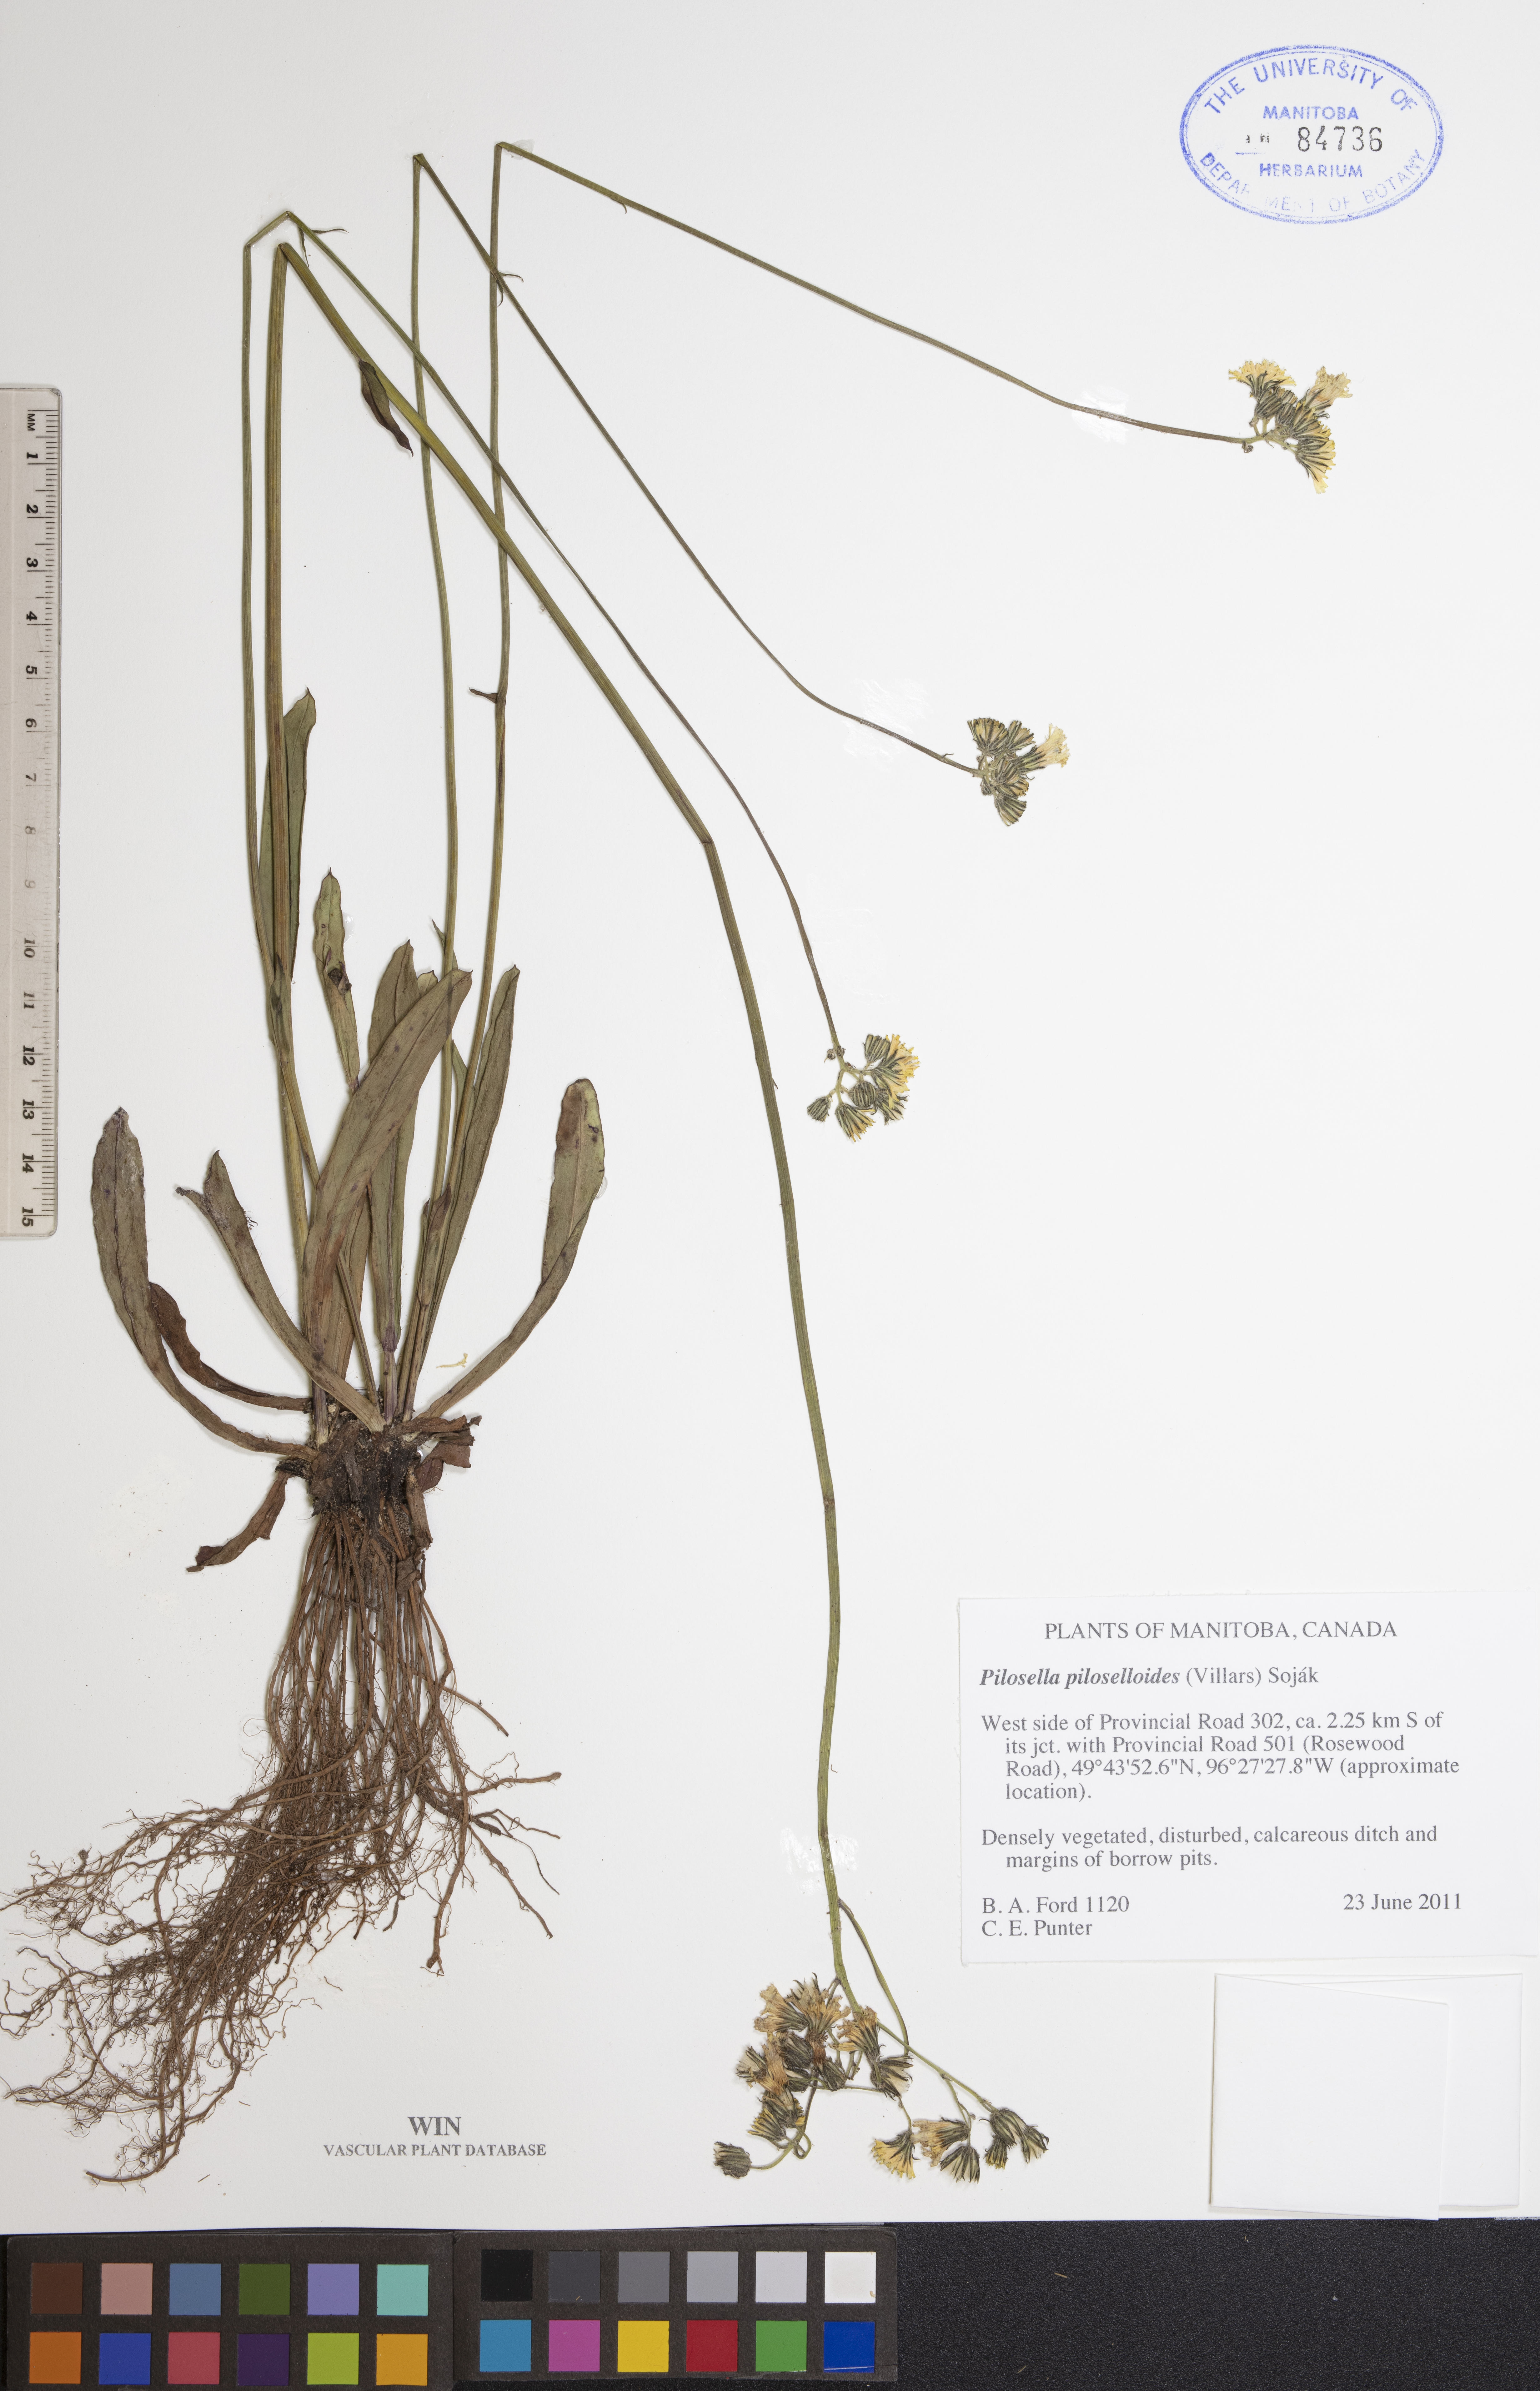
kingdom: Plantae
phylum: Tracheophyta
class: Magnoliopsida
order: Asterales
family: Asteraceae
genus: Pilosella
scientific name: Pilosella piloselloides
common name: Glaucous king-devil
